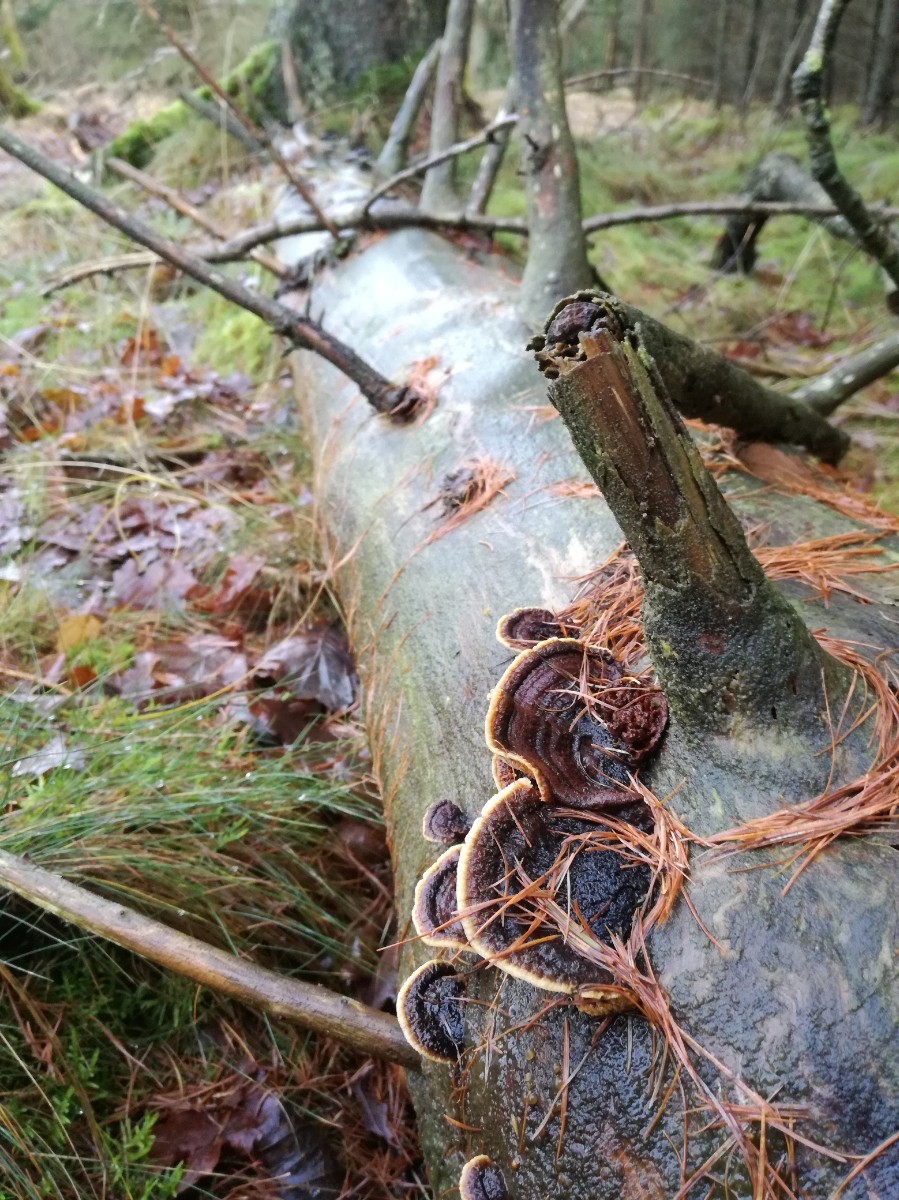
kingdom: Fungi
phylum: Basidiomycota
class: Agaricomycetes
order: Gloeophyllales
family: Gloeophyllaceae
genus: Gloeophyllum
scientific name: Gloeophyllum sepiarium
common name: fyrre-korkhat
